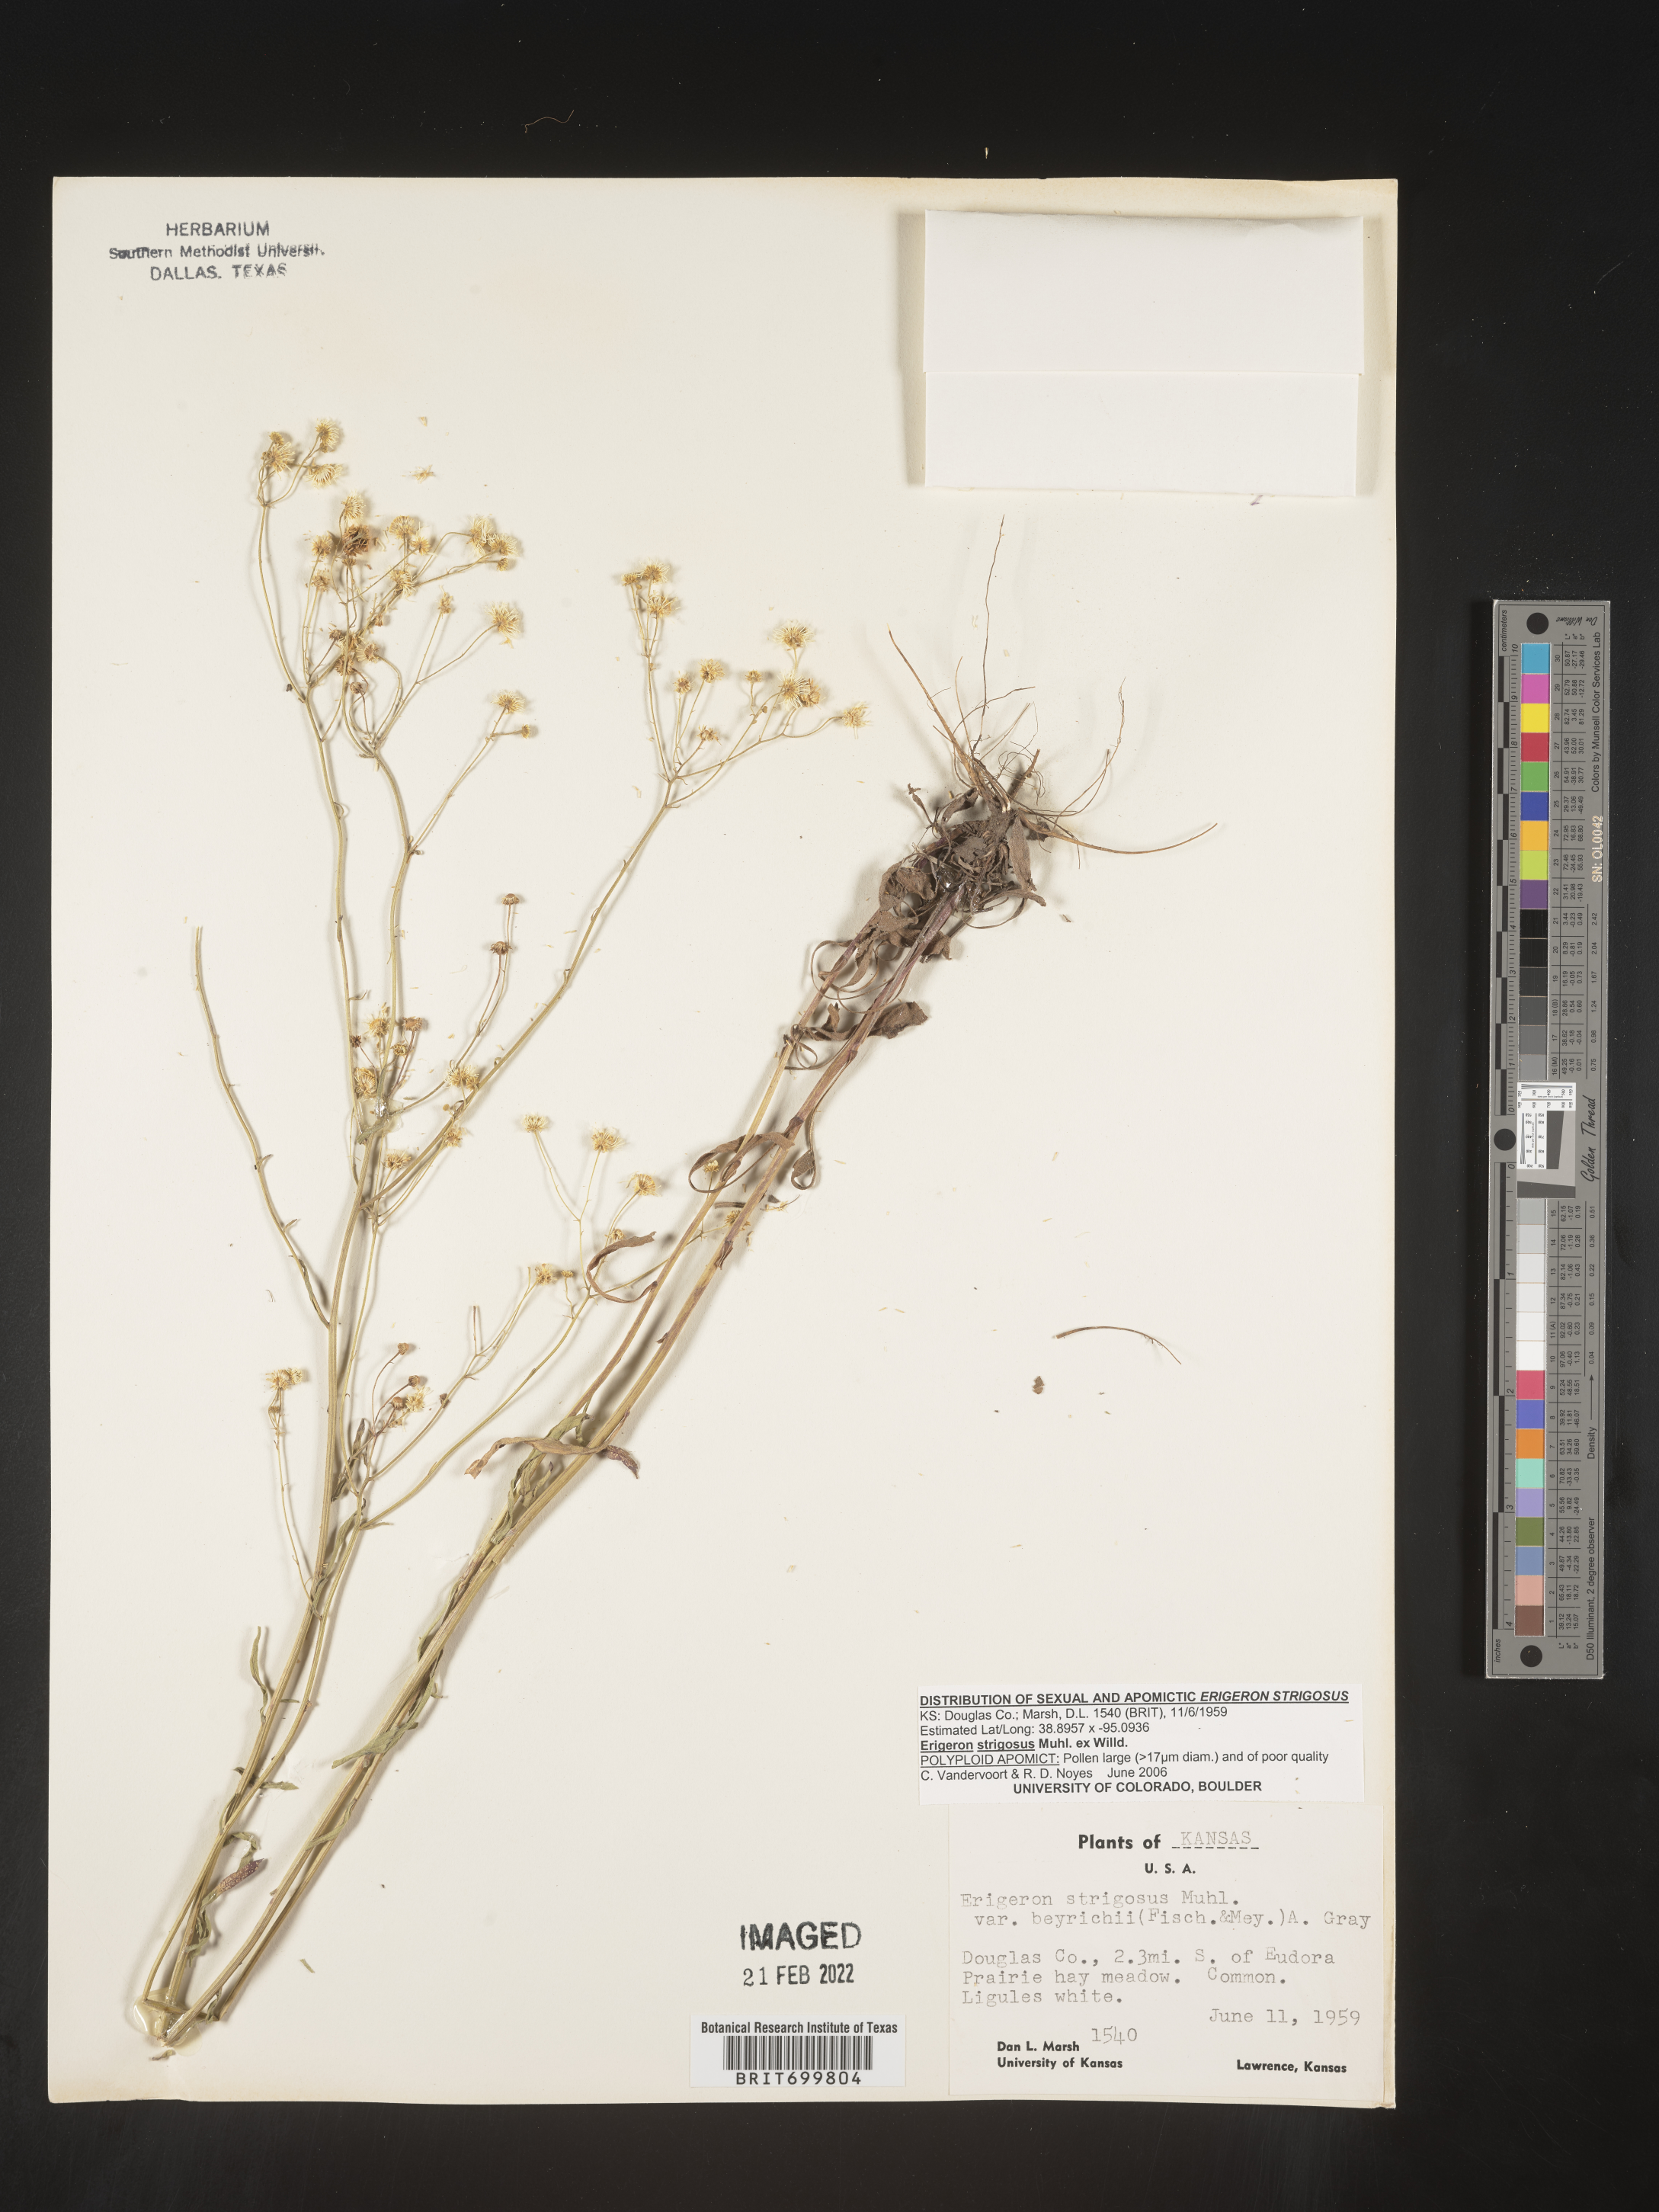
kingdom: Plantae
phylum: Tracheophyta
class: Magnoliopsida
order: Asterales
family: Asteraceae
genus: Erigeron
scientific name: Erigeron strigosus
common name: Common eastern fleabane
